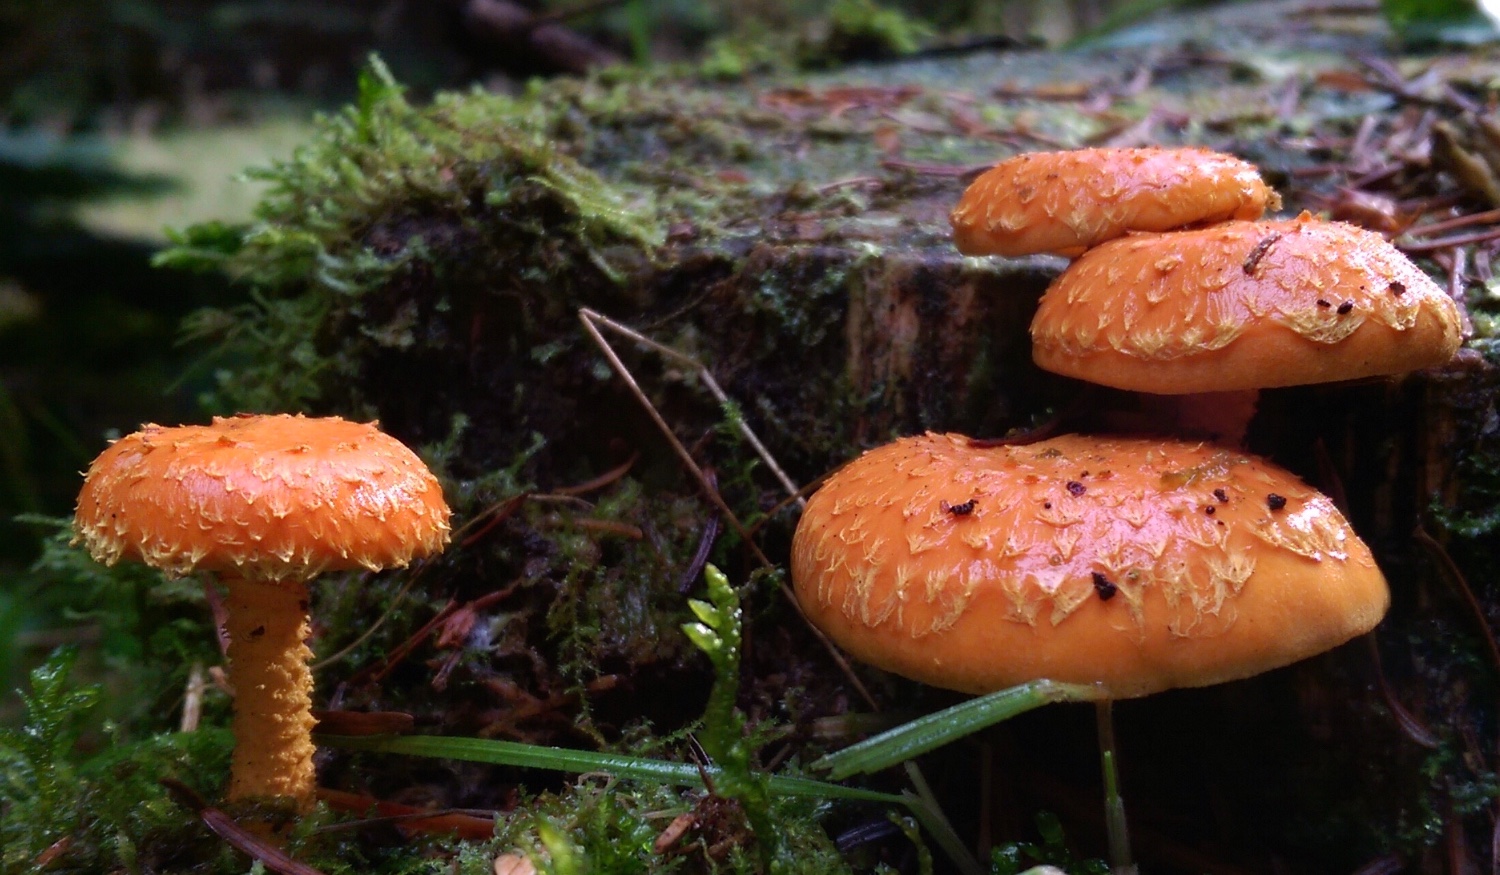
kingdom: Fungi
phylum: Basidiomycota
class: Agaricomycetes
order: Agaricales
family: Strophariaceae
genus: Pholiota
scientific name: Pholiota flammans
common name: flamme-skælhat
